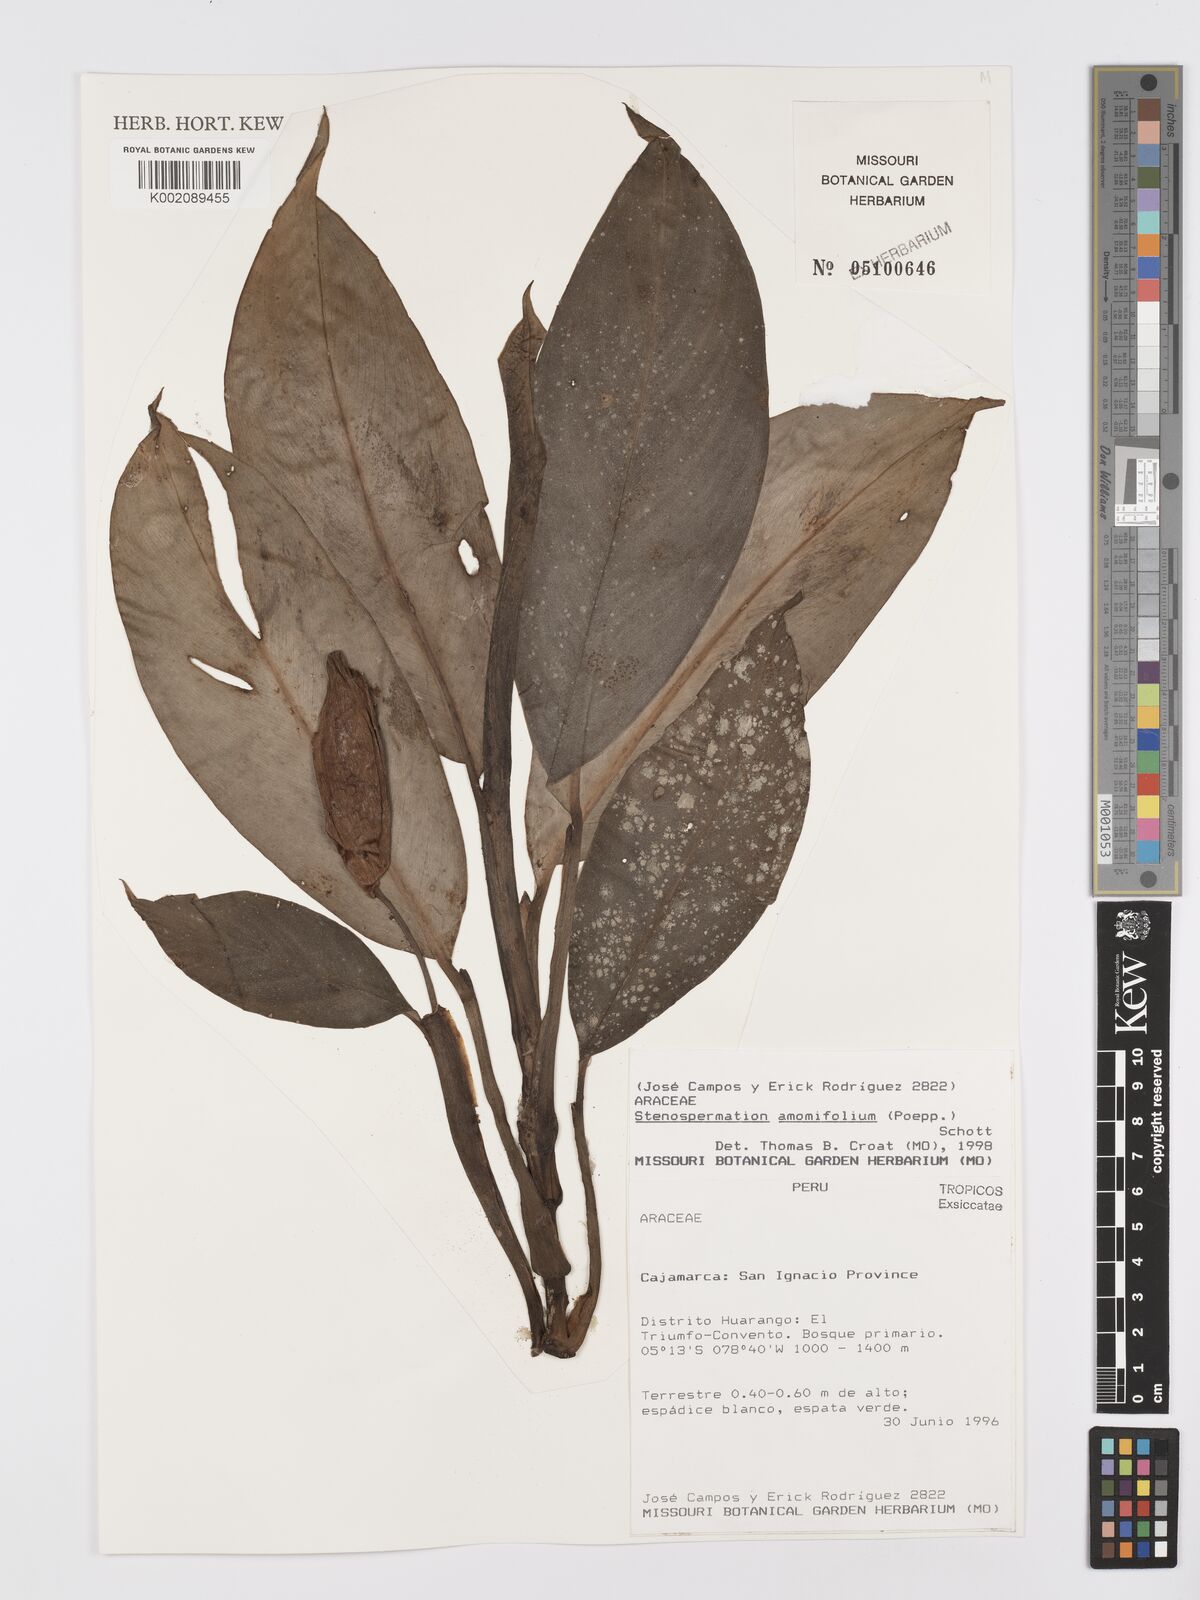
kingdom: Plantae
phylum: Tracheophyta
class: Liliopsida
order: Alismatales
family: Araceae
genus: Stenospermation
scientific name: Stenospermation amomifolium
